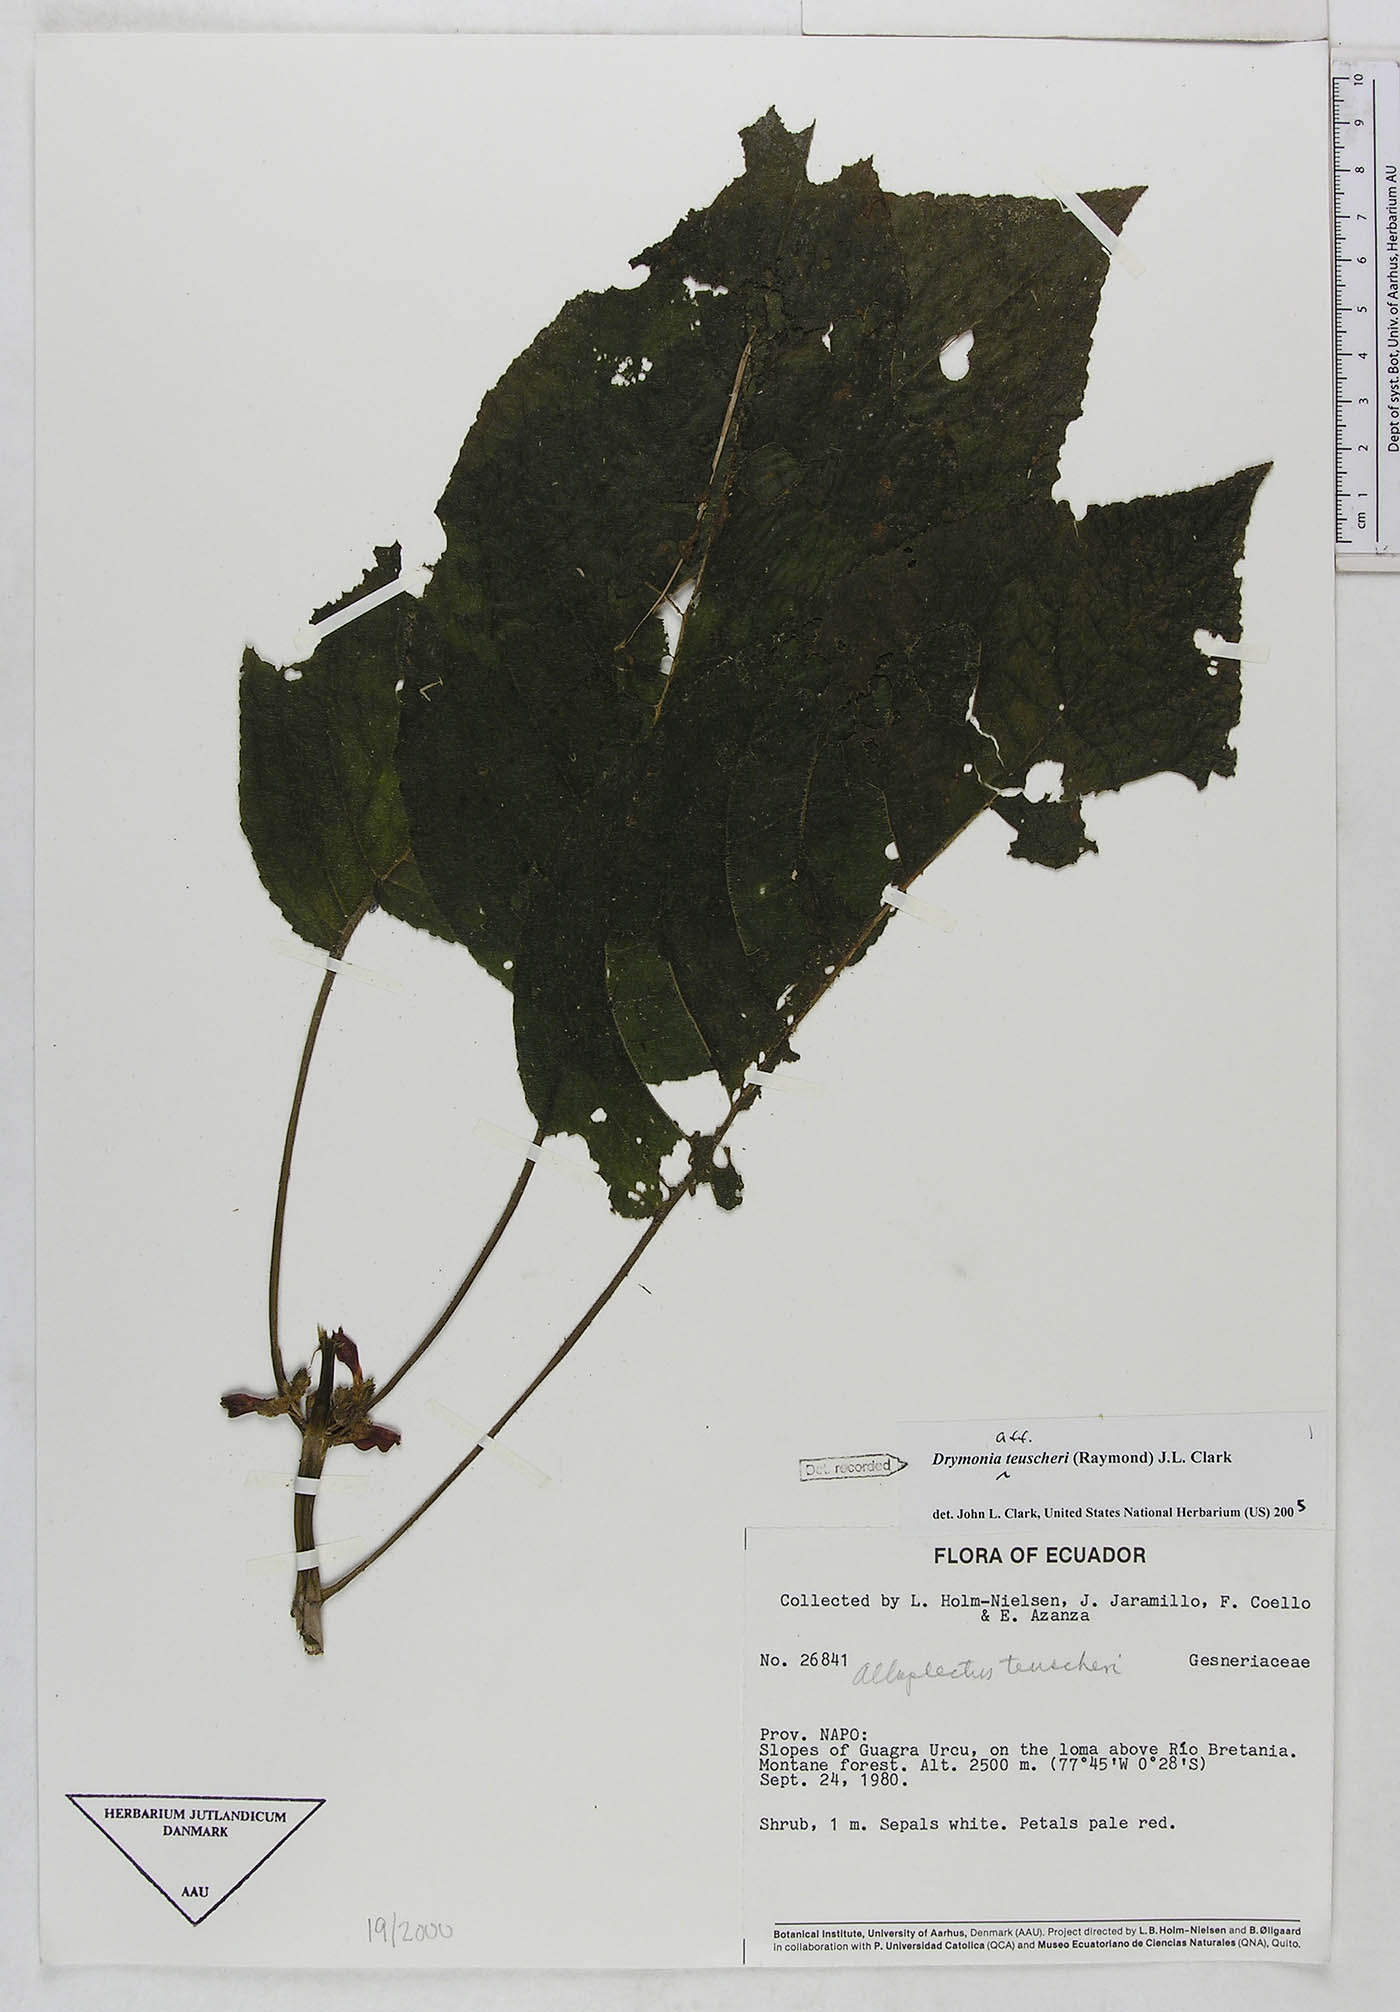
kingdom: Plantae
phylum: Tracheophyta
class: Magnoliopsida
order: Lamiales
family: Gesneriaceae
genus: Drymonia
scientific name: Drymonia teuscheri
